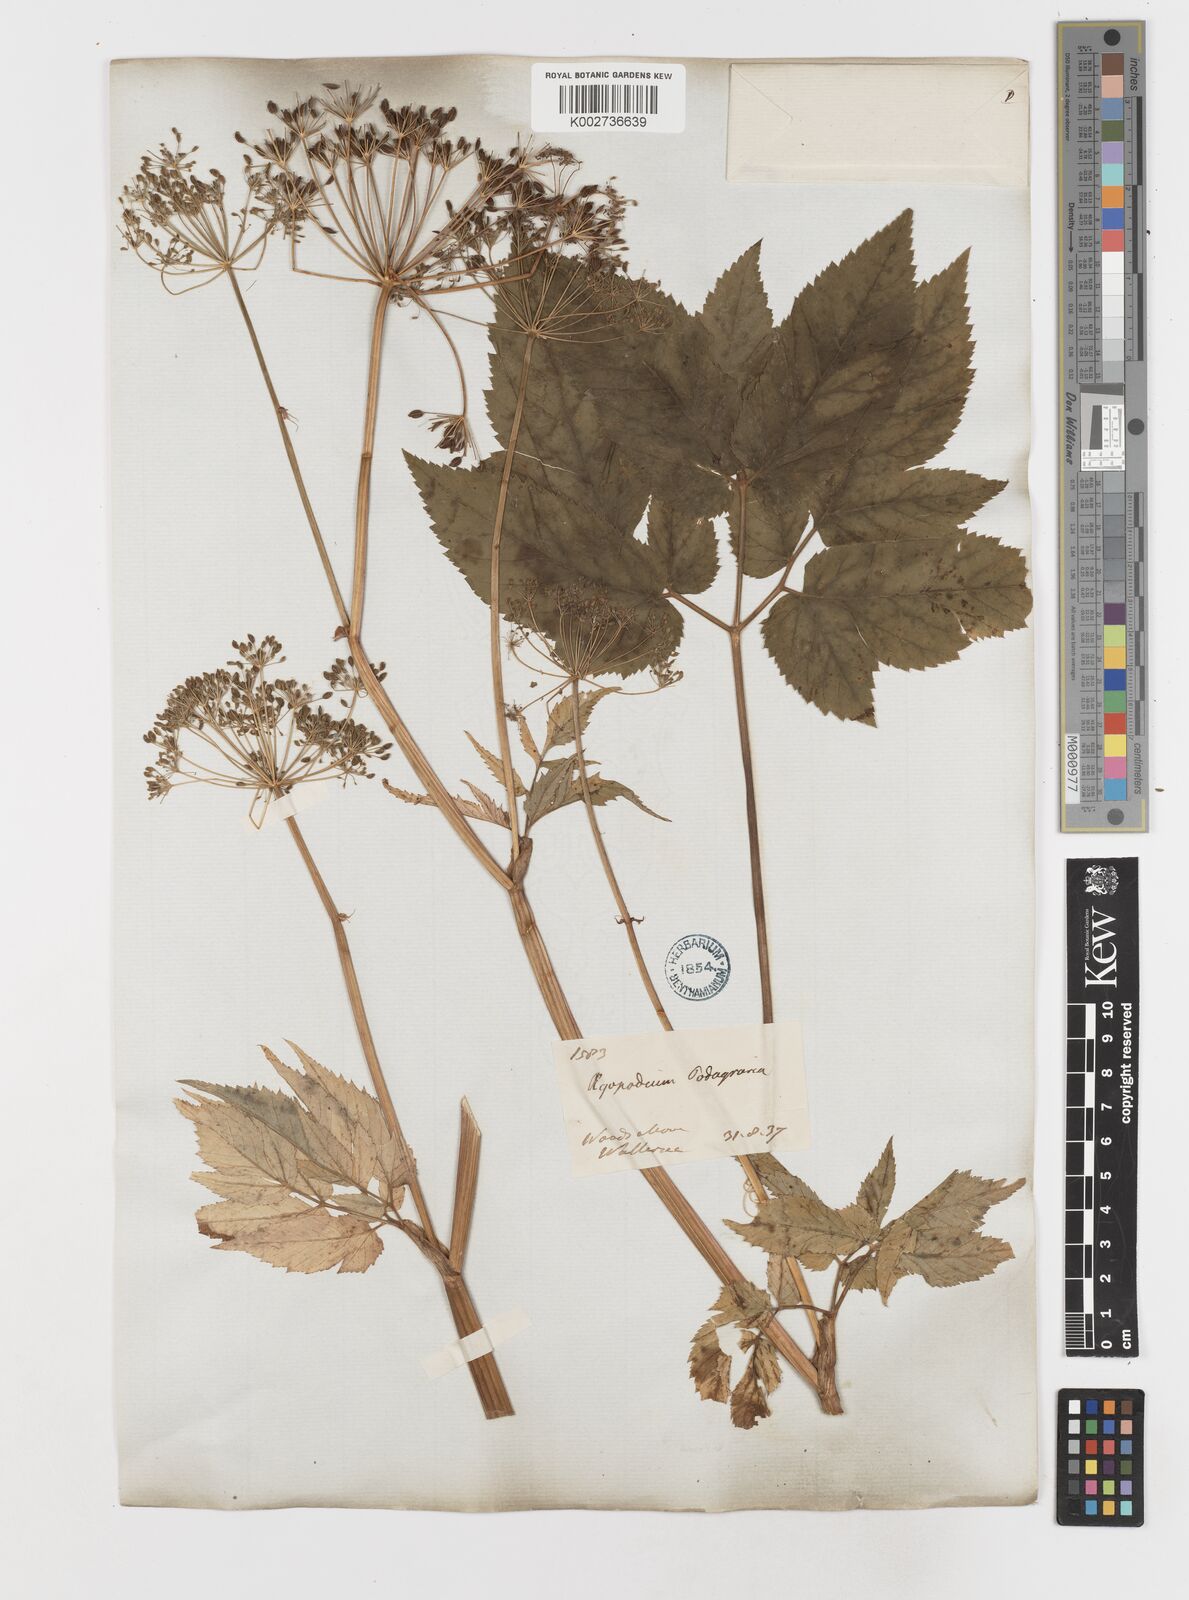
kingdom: Plantae
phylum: Tracheophyta
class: Magnoliopsida
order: Apiales
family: Apiaceae
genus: Aegopodium
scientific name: Aegopodium podagraria
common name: Ground-elder
